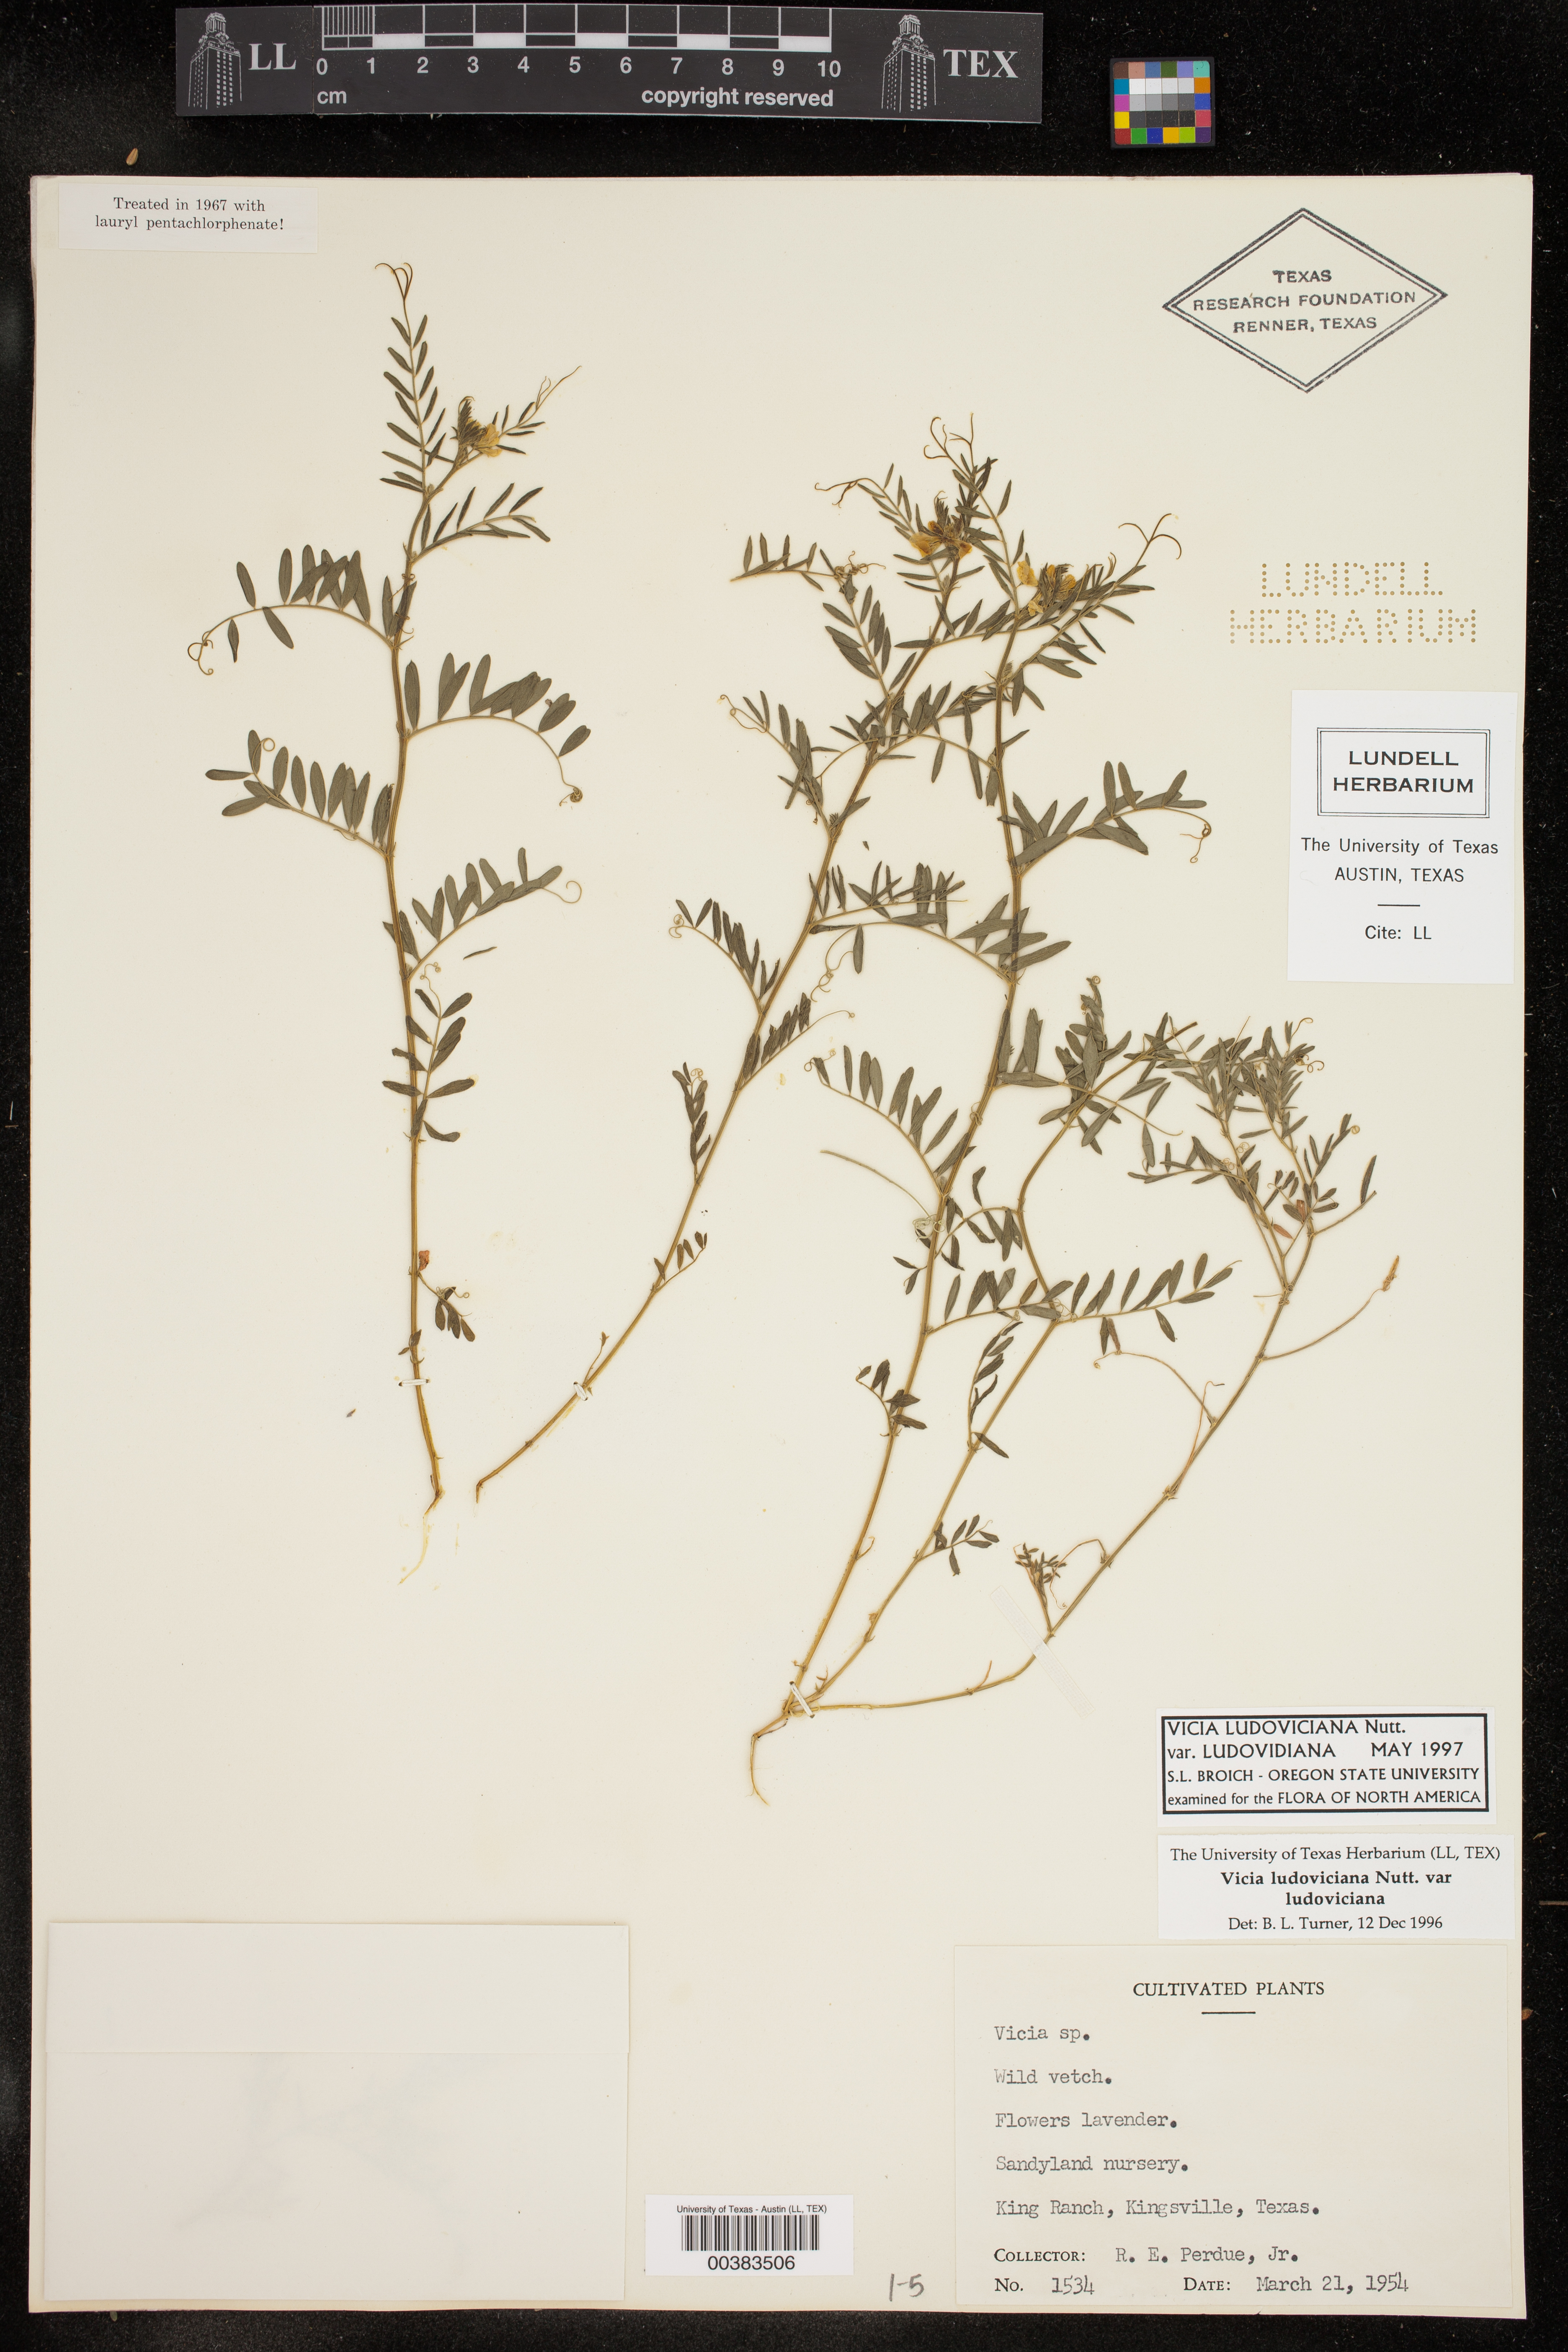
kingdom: Plantae
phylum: Tracheophyta
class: Magnoliopsida
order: Fabales
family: Fabaceae
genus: Vicia
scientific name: Vicia ludoviciana
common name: Louisiana vetch
